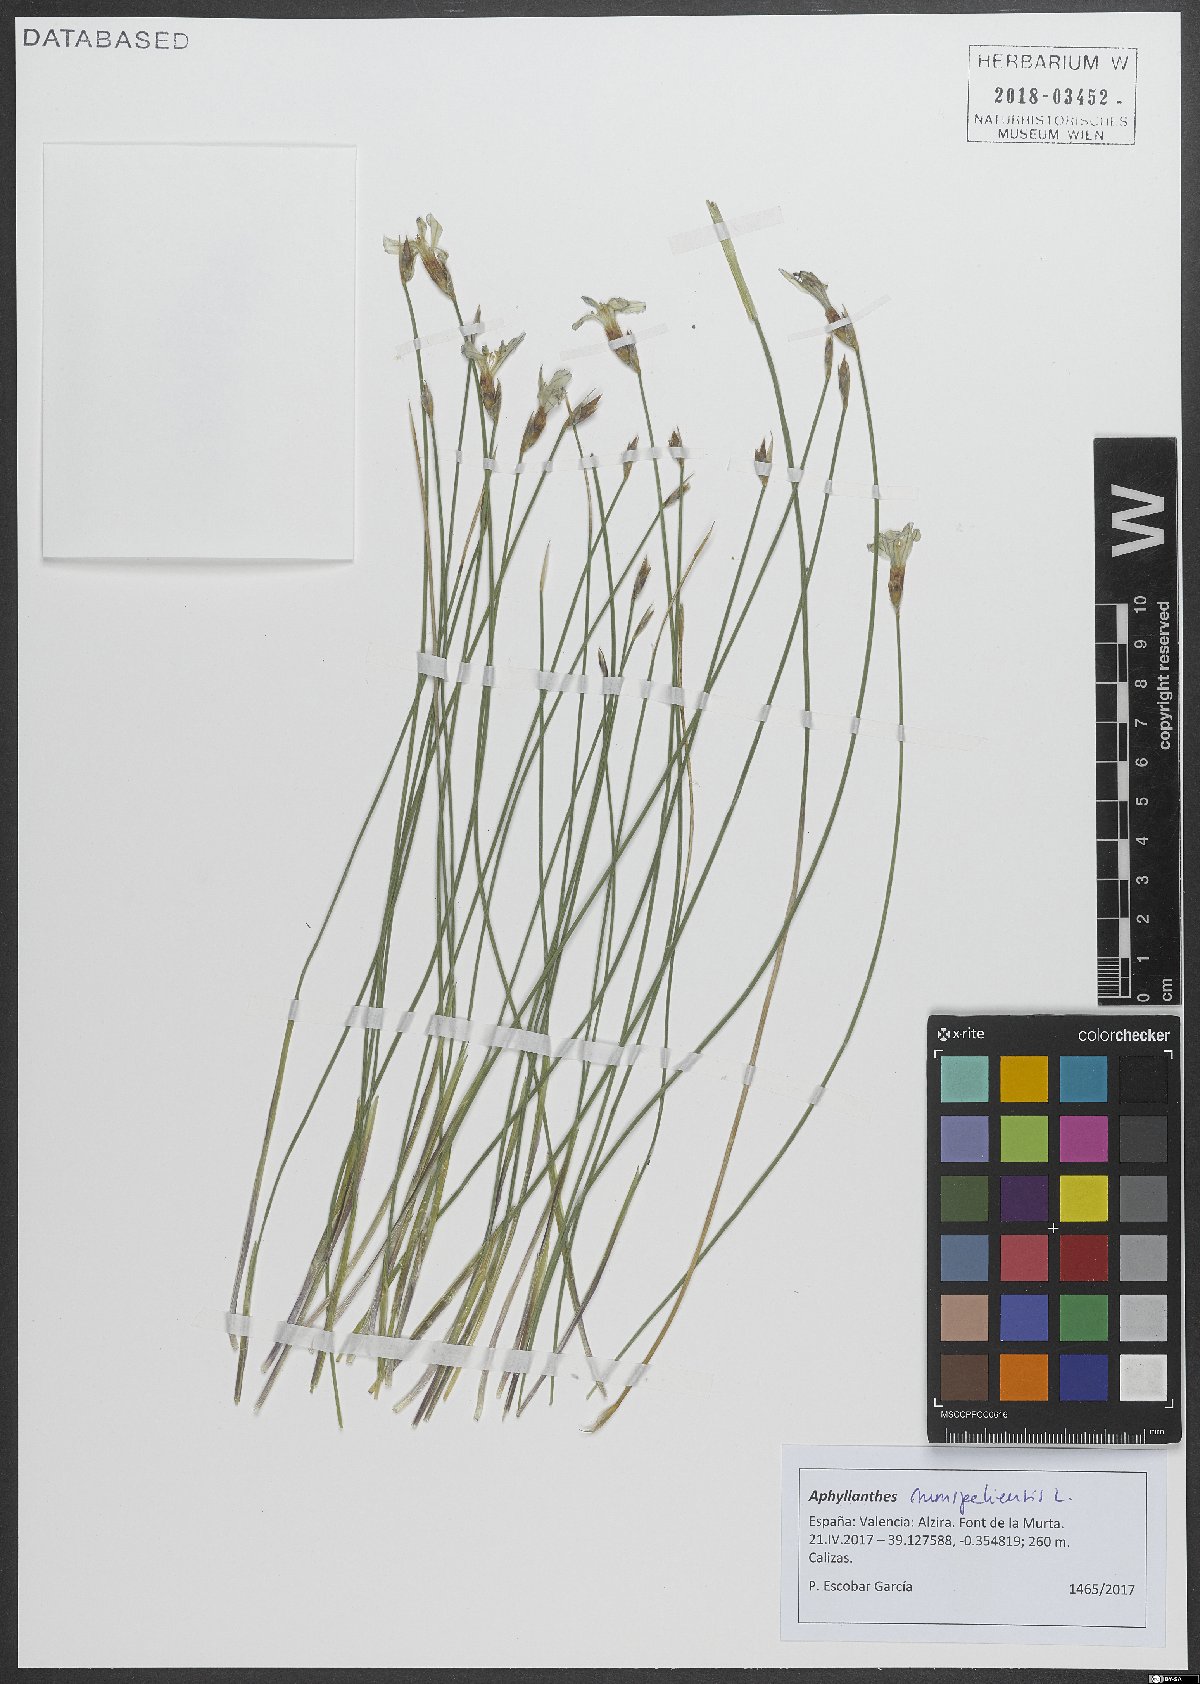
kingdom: Plantae
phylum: Tracheophyta
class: Liliopsida
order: Asparagales
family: Asparagaceae
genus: Aphyllanthes
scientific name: Aphyllanthes monspeliensis
